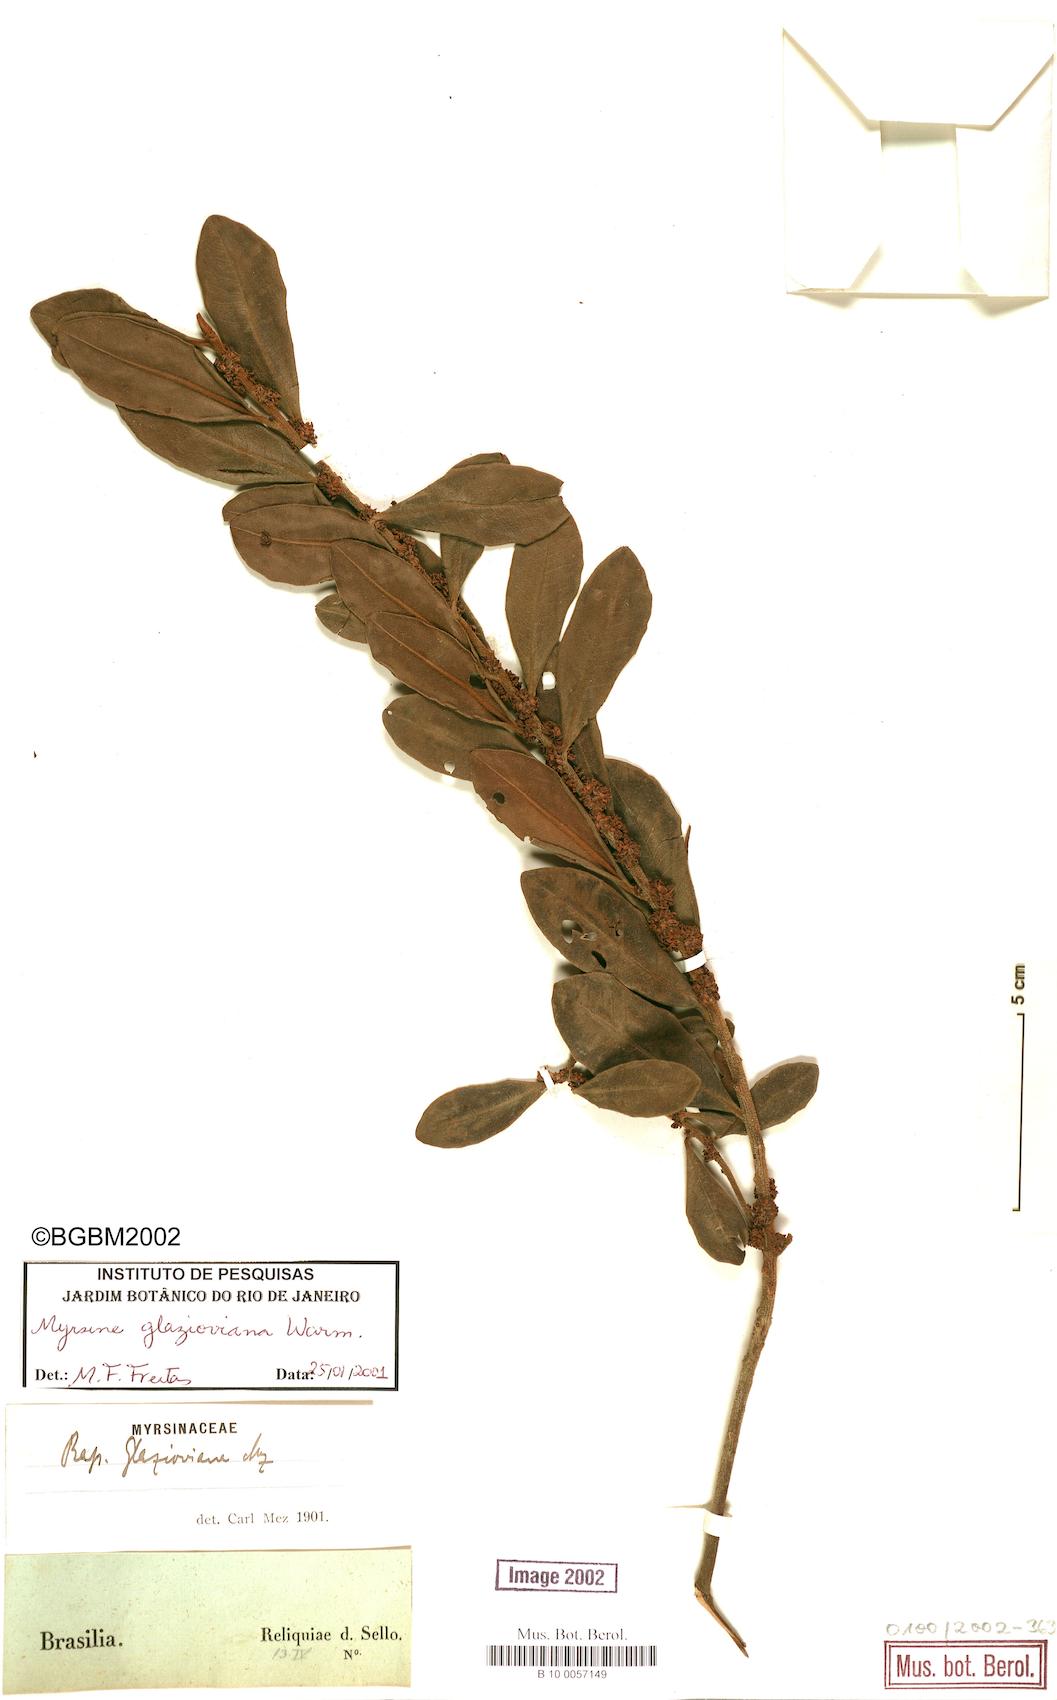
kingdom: Plantae
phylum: Tracheophyta
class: Magnoliopsida
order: Ericales
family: Primulaceae
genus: Myrsine
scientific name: Myrsine glazioviana
